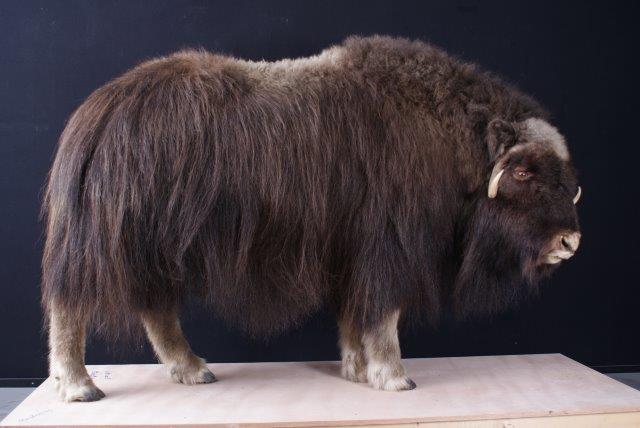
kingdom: Animalia
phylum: Chordata
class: Mammalia
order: Artiodactyla
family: Bovidae
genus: Ovibos
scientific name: Ovibos moschatus
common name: Muskox
